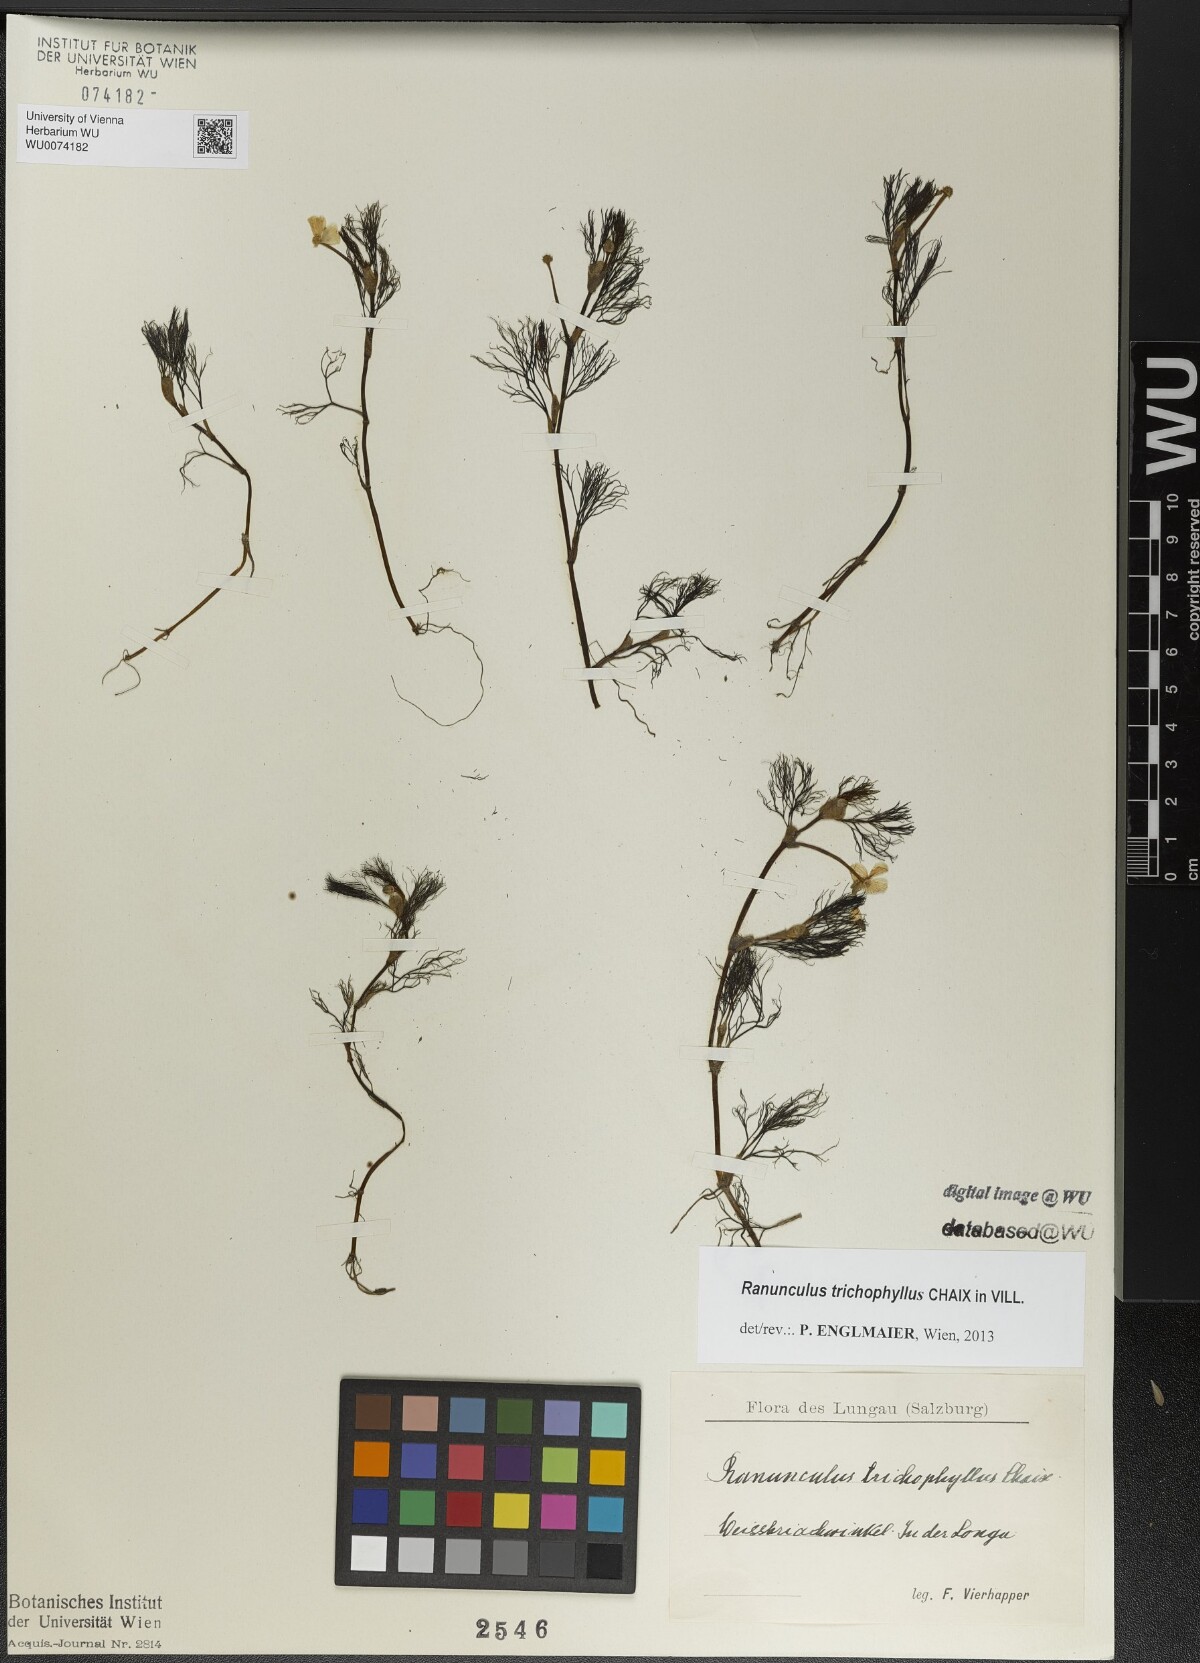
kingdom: Plantae
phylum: Tracheophyta
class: Magnoliopsida
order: Ranunculales
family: Ranunculaceae
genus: Ranunculus
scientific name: Ranunculus trichophyllus
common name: Thread-leaved water-crowfoot
